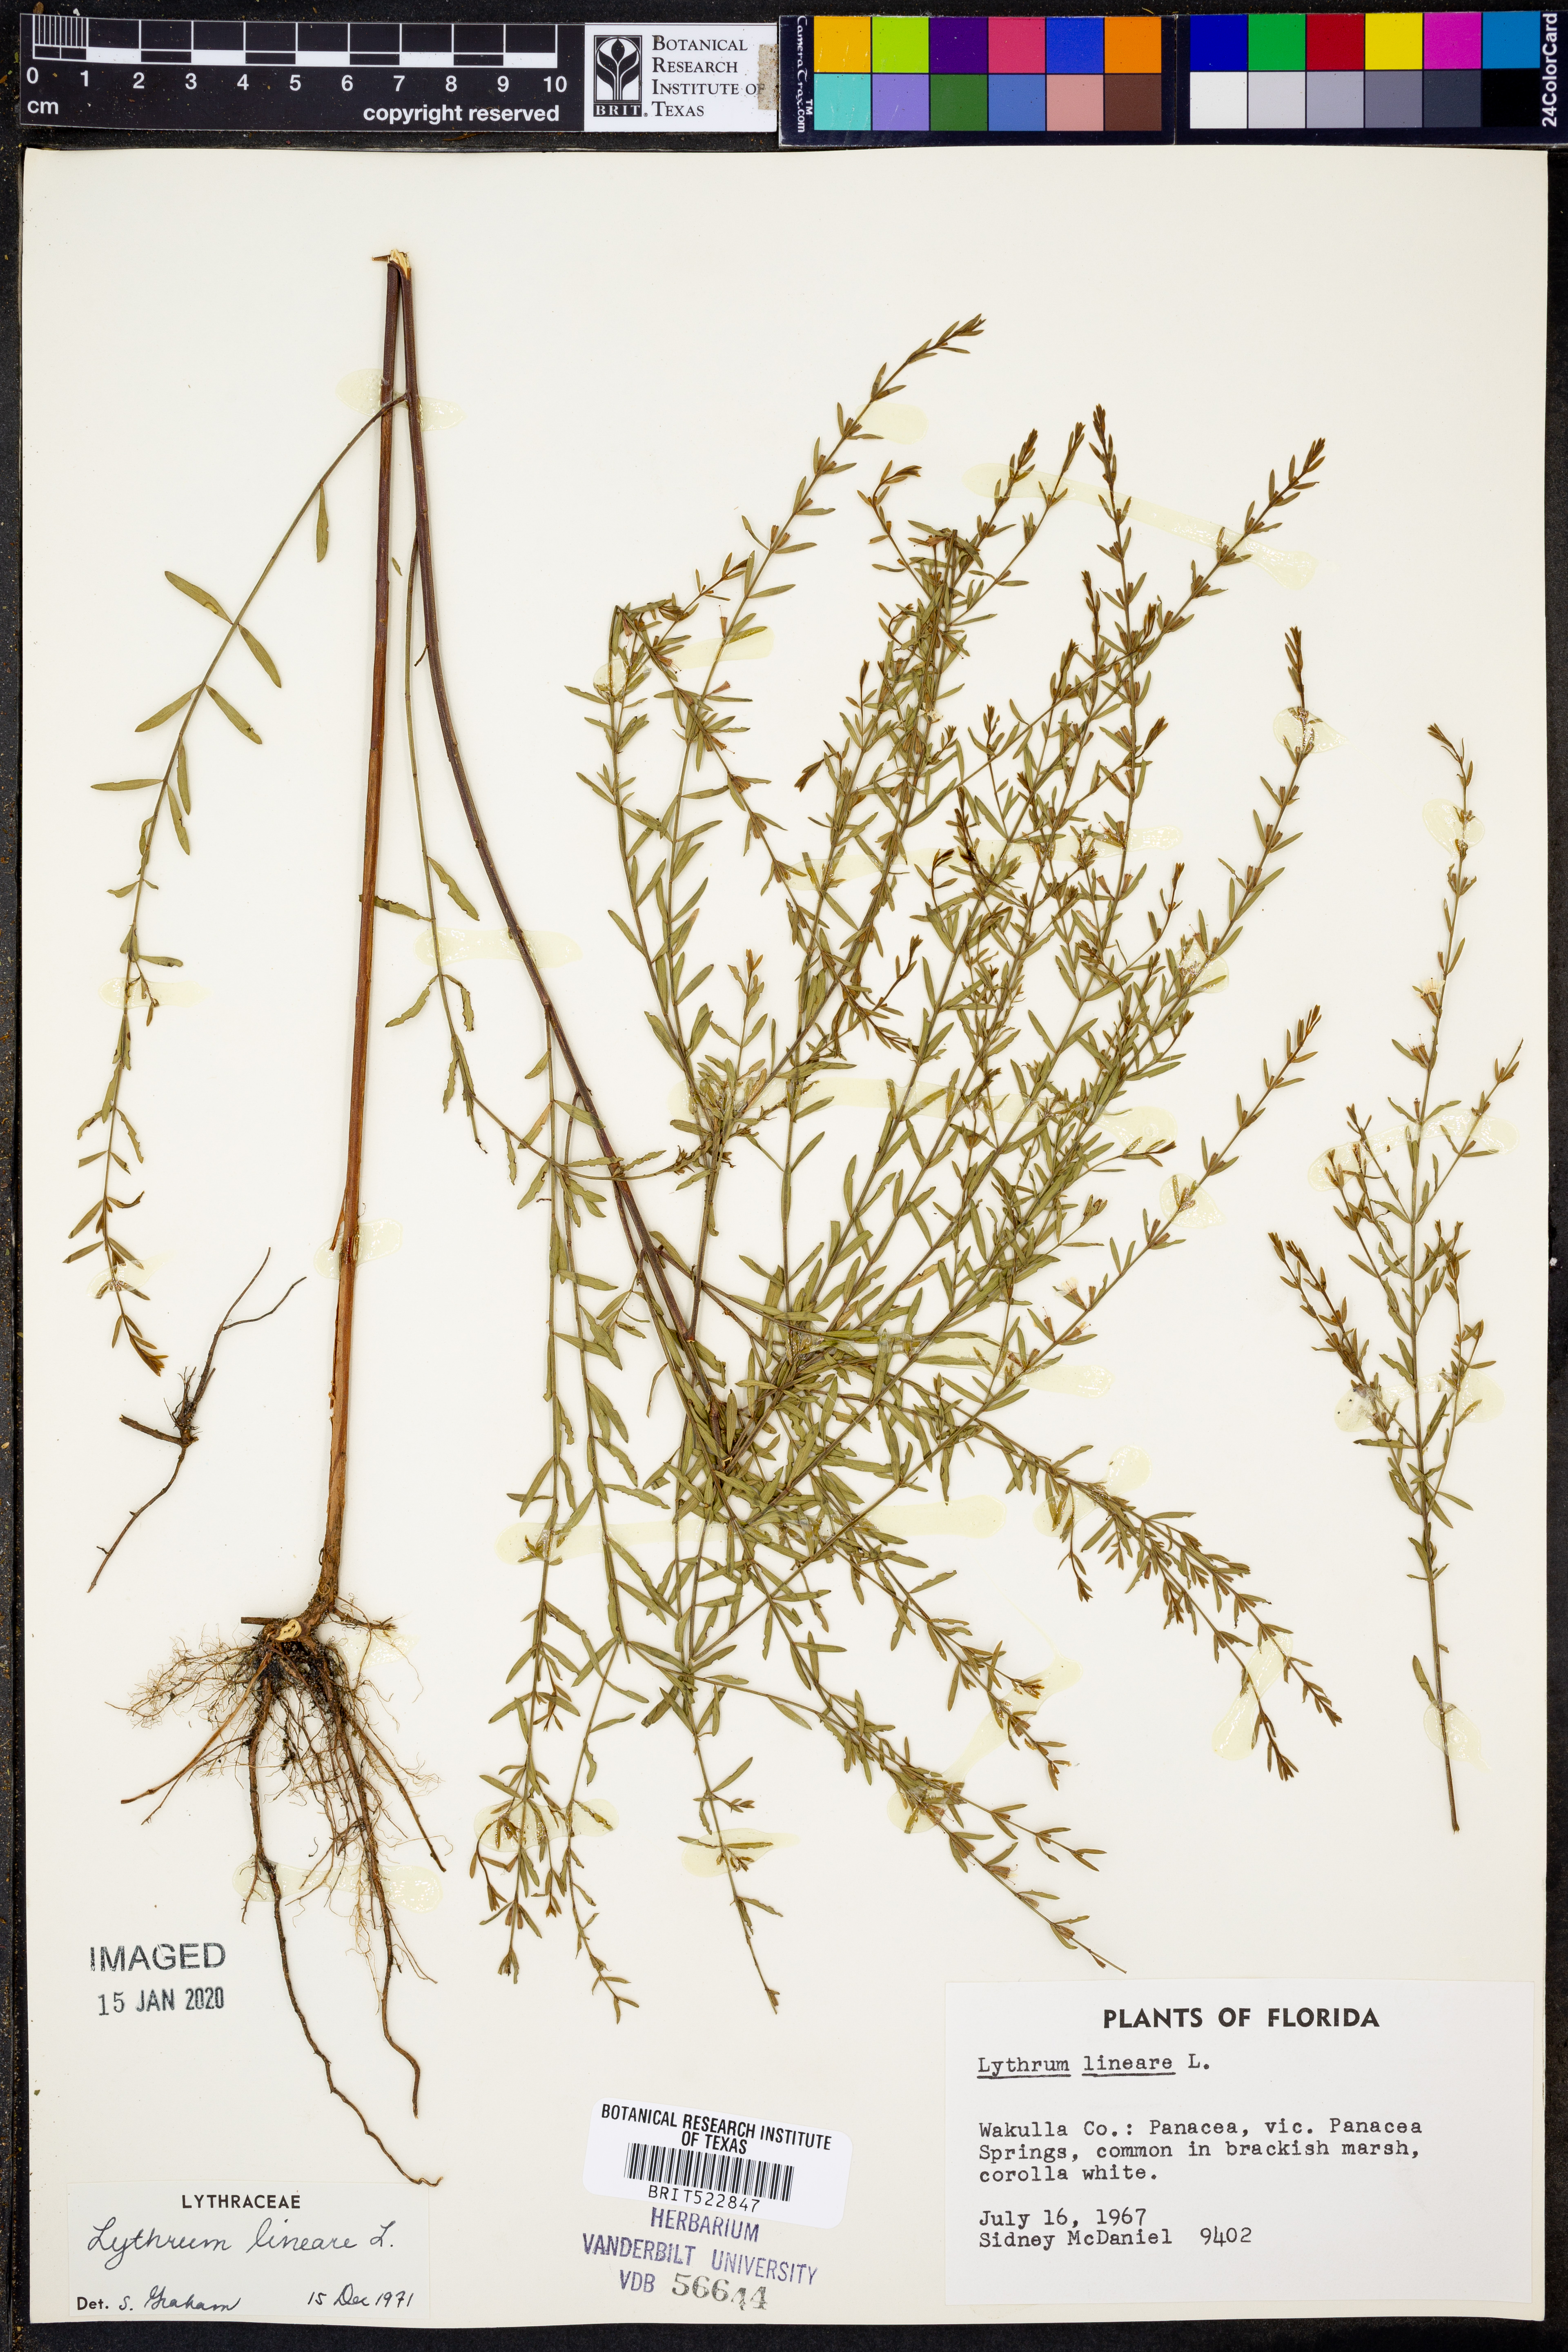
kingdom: Plantae
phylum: Tracheophyta
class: Magnoliopsida
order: Myrtales
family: Lythraceae
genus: Lythrum
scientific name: Lythrum lineare
